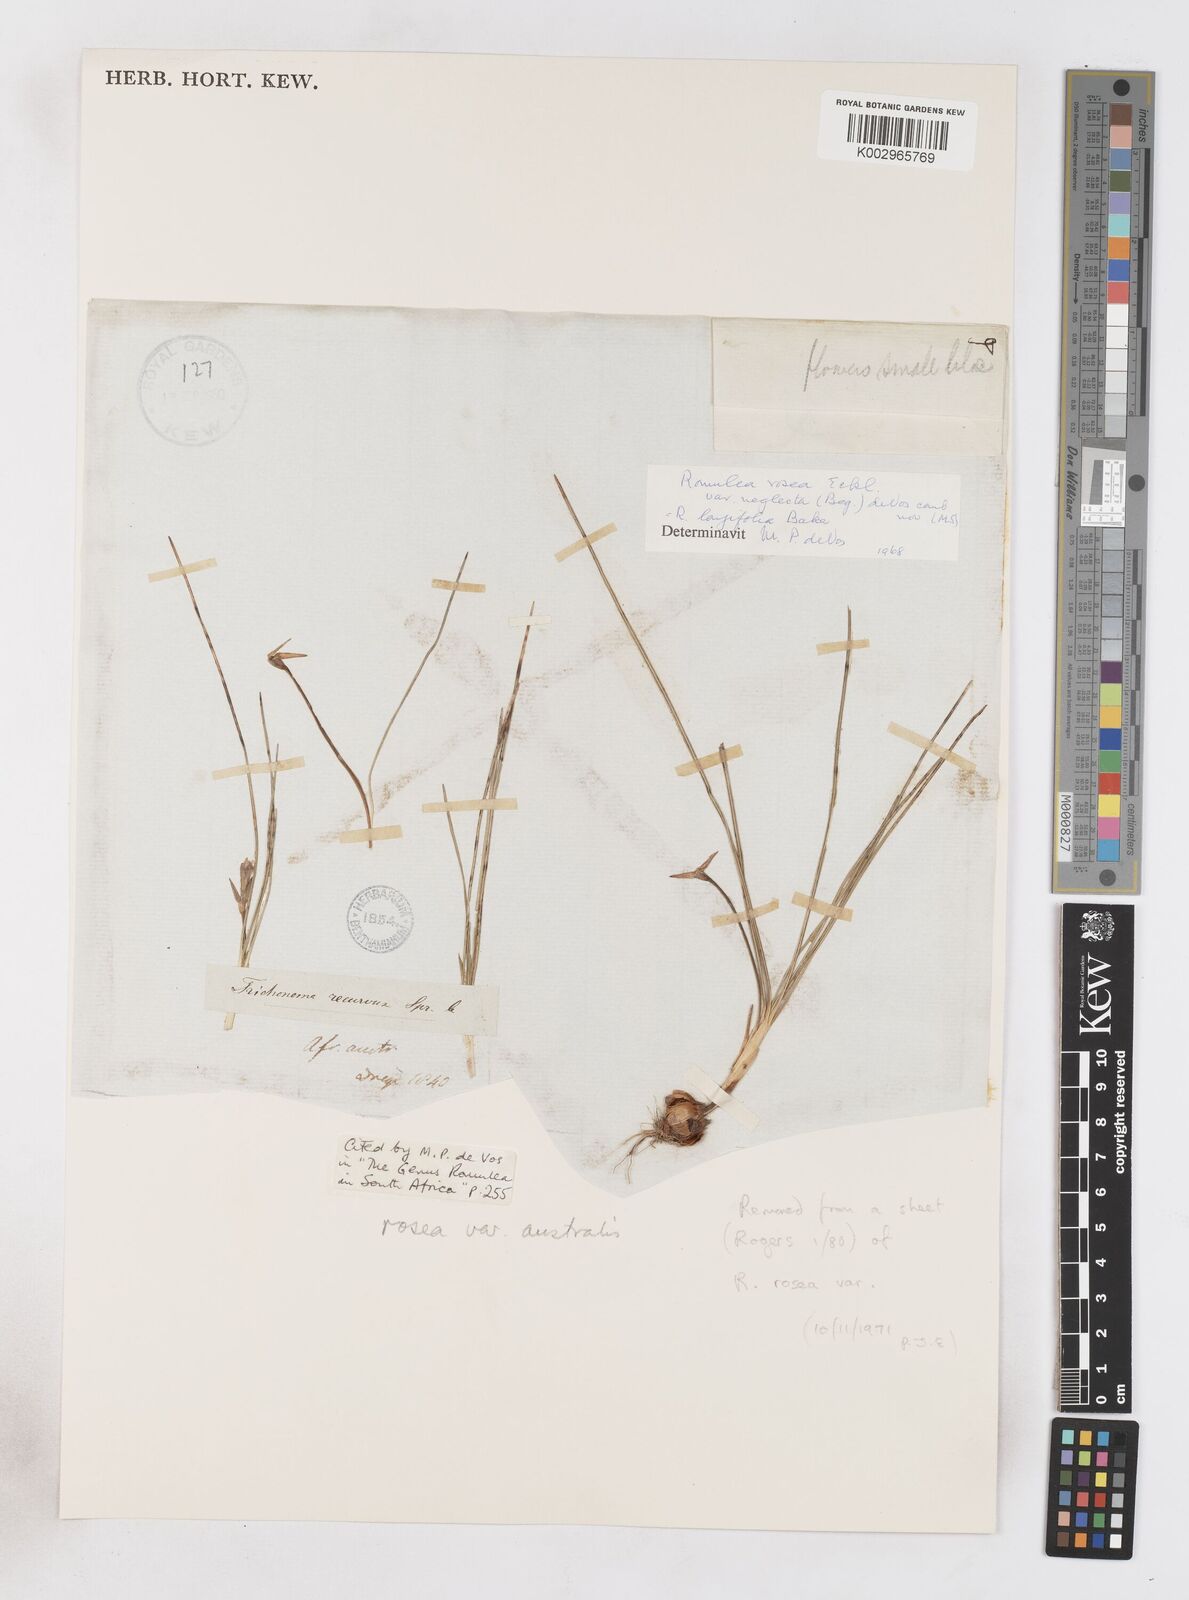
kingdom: Plantae
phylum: Tracheophyta
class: Liliopsida
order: Asparagales
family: Iridaceae
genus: Romulea
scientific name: Romulea rosea
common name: Oniongrass
